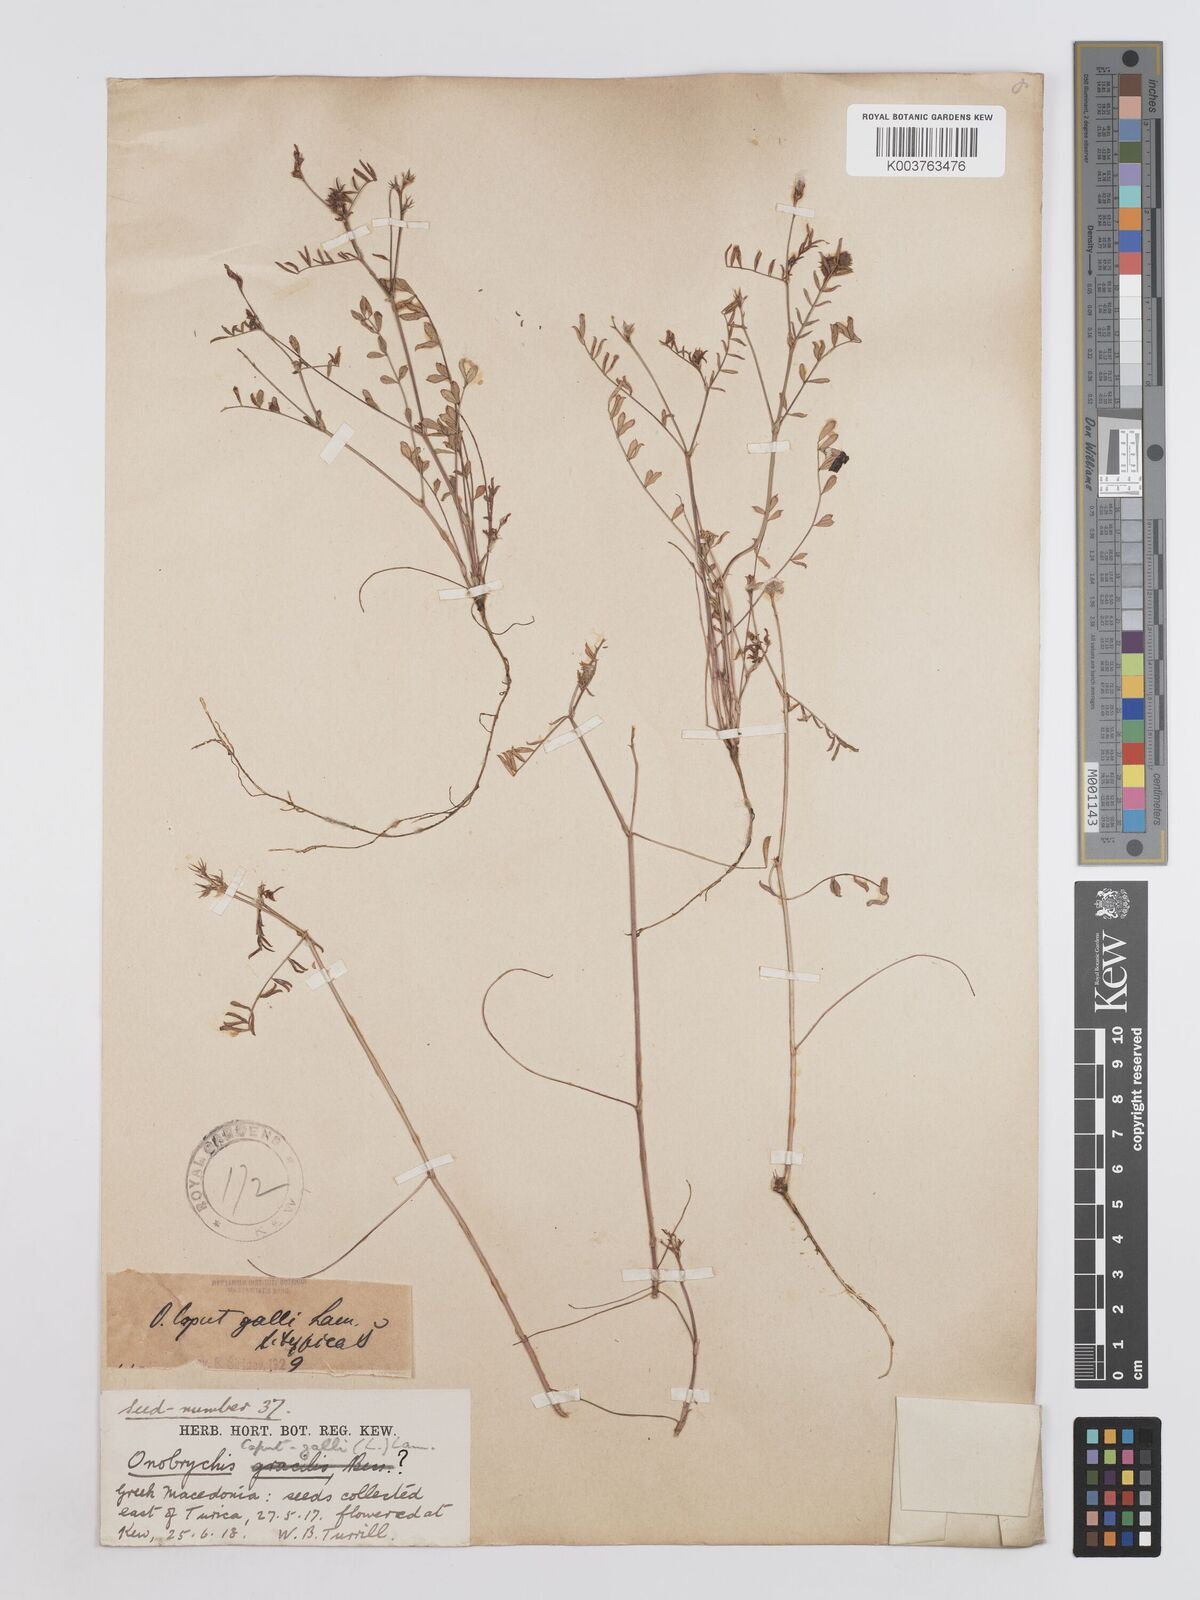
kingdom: Plantae
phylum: Tracheophyta
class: Magnoliopsida
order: Fabales
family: Fabaceae
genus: Onobrychis
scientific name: Onobrychis caput-galli
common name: Cockscomb sainfoin
